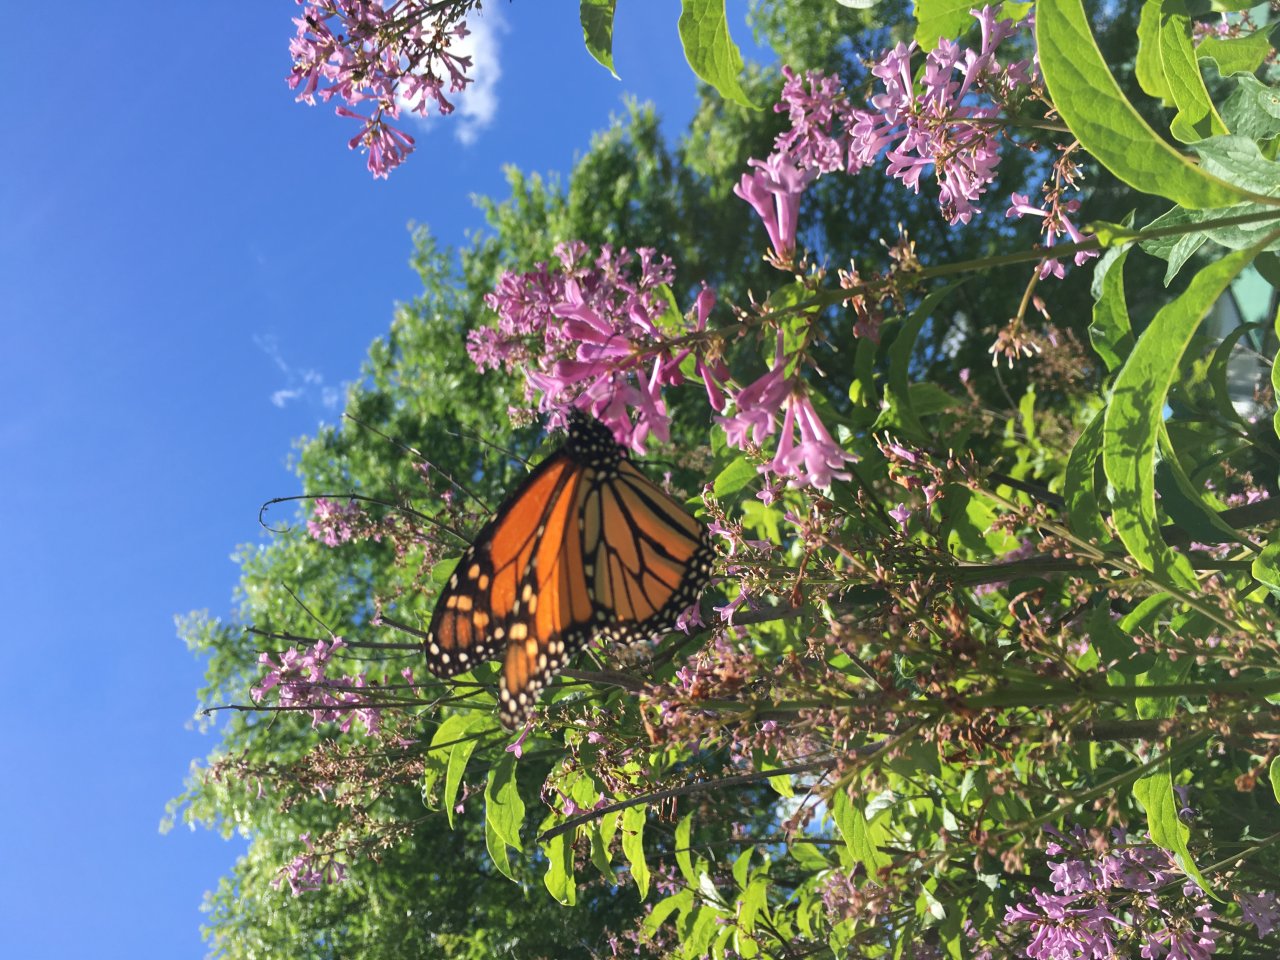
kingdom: Animalia
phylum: Arthropoda
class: Insecta
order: Lepidoptera
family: Nymphalidae
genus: Danaus
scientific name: Danaus plexippus
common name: Monarch
